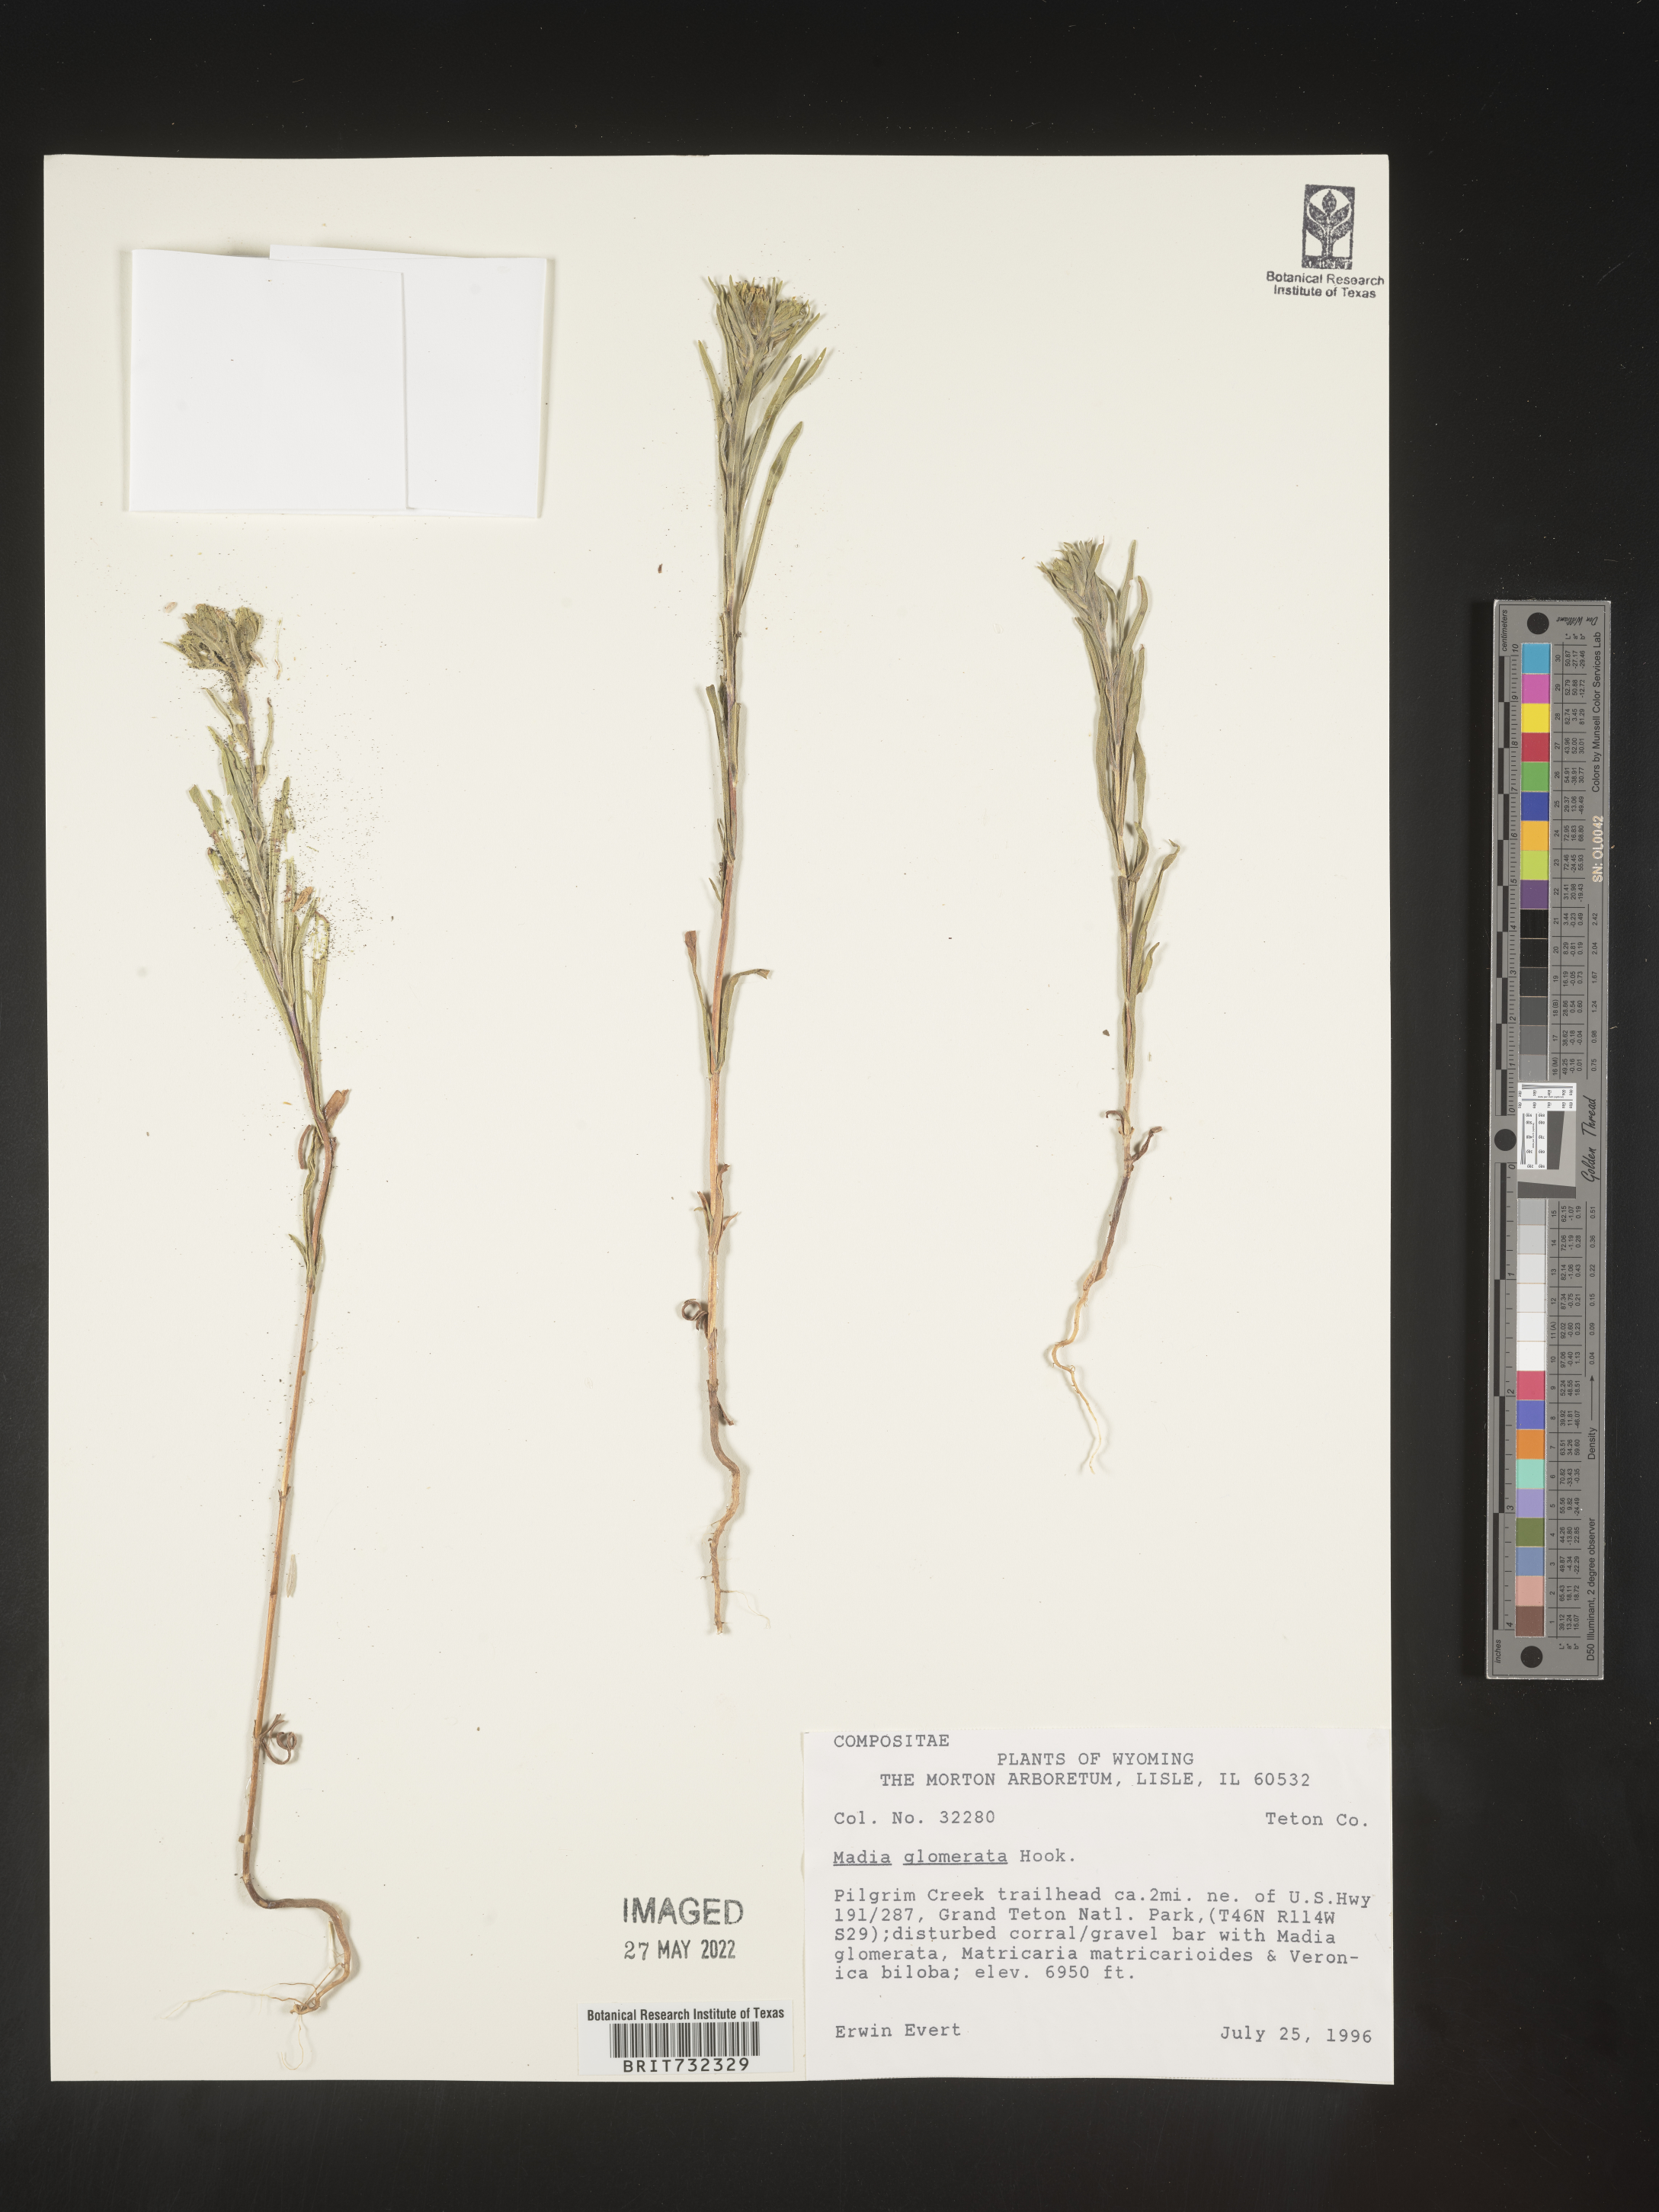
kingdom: Plantae
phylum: Tracheophyta
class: Magnoliopsida
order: Asterales
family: Asteraceae
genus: Madia
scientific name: Madia glomerata
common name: Mountain tarweed
